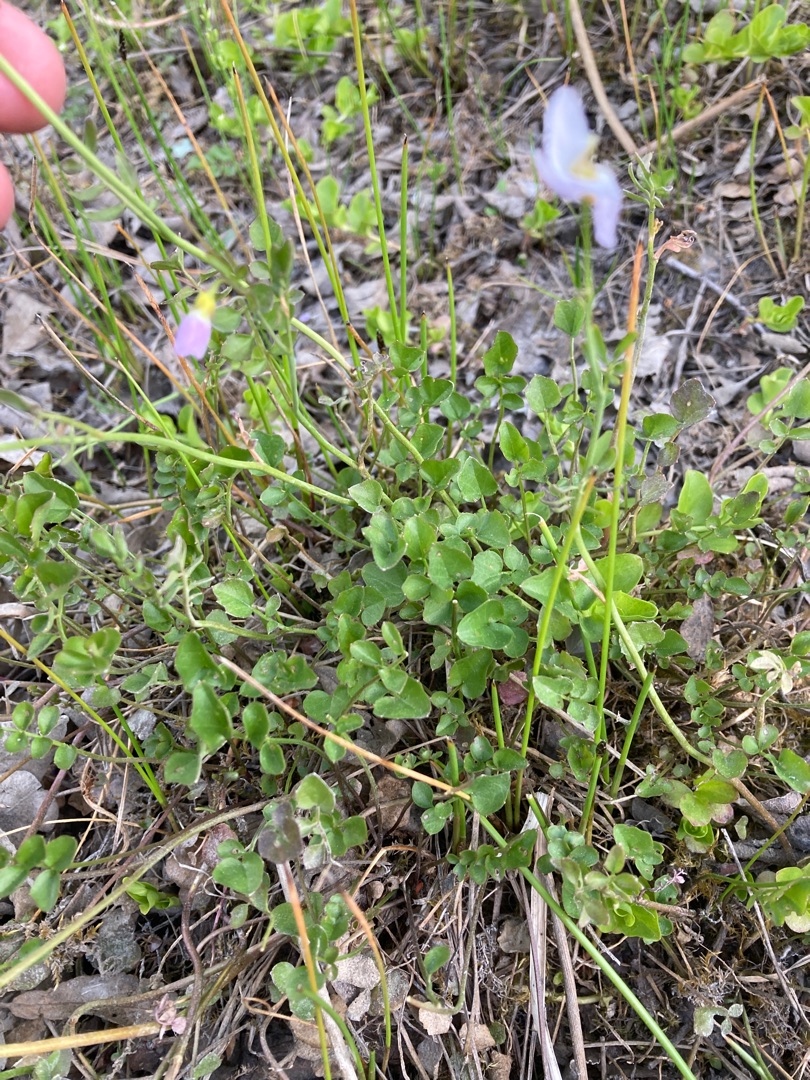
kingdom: Plantae
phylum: Tracheophyta
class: Magnoliopsida
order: Brassicales
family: Brassicaceae
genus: Cardamine
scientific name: Cardamine pratensis
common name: Engkarse
